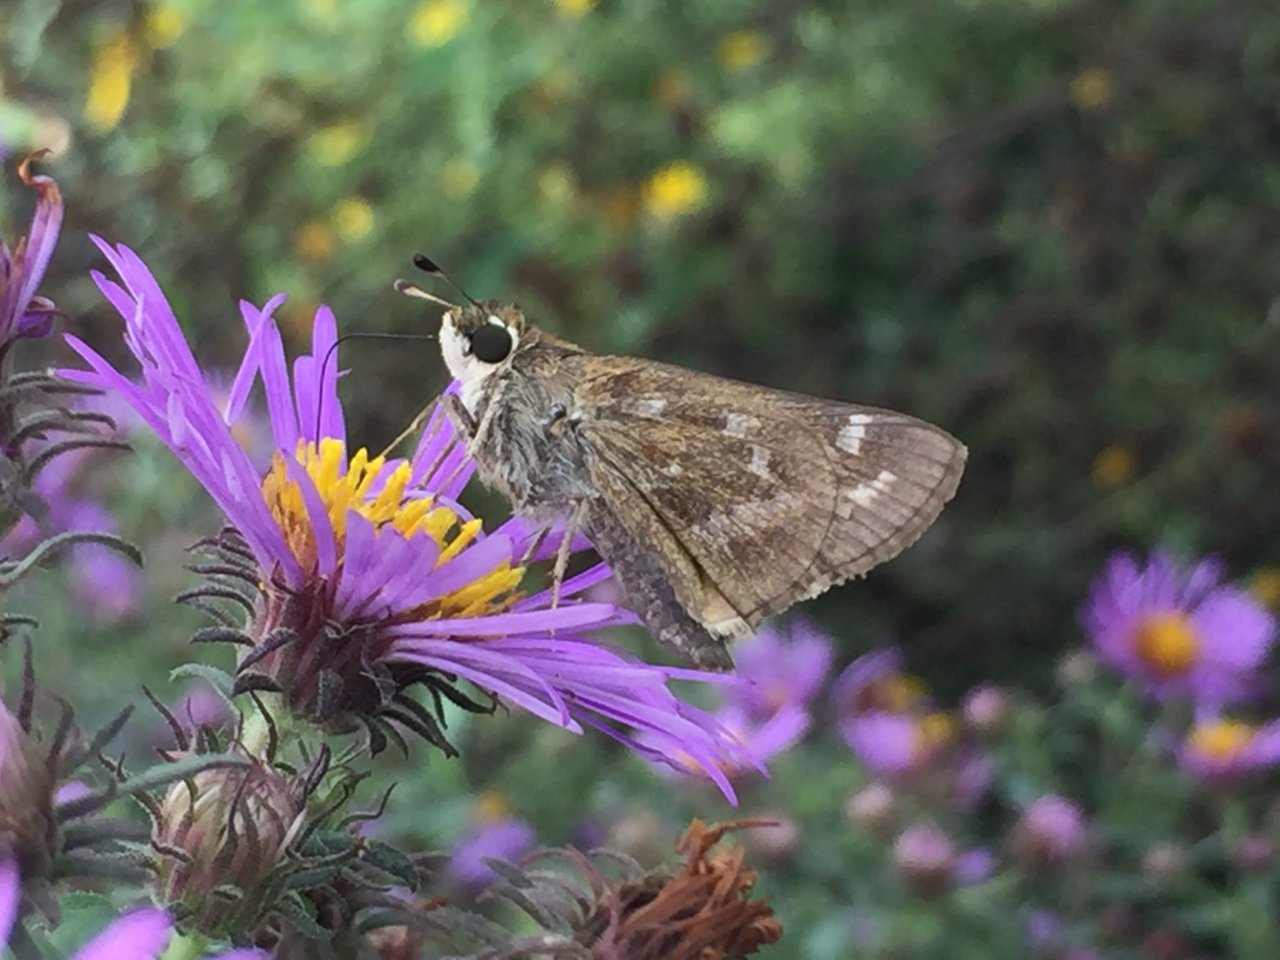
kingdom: Animalia
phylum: Arthropoda
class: Insecta
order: Lepidoptera
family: Hesperiidae
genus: Atalopedes
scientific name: Atalopedes campestris
